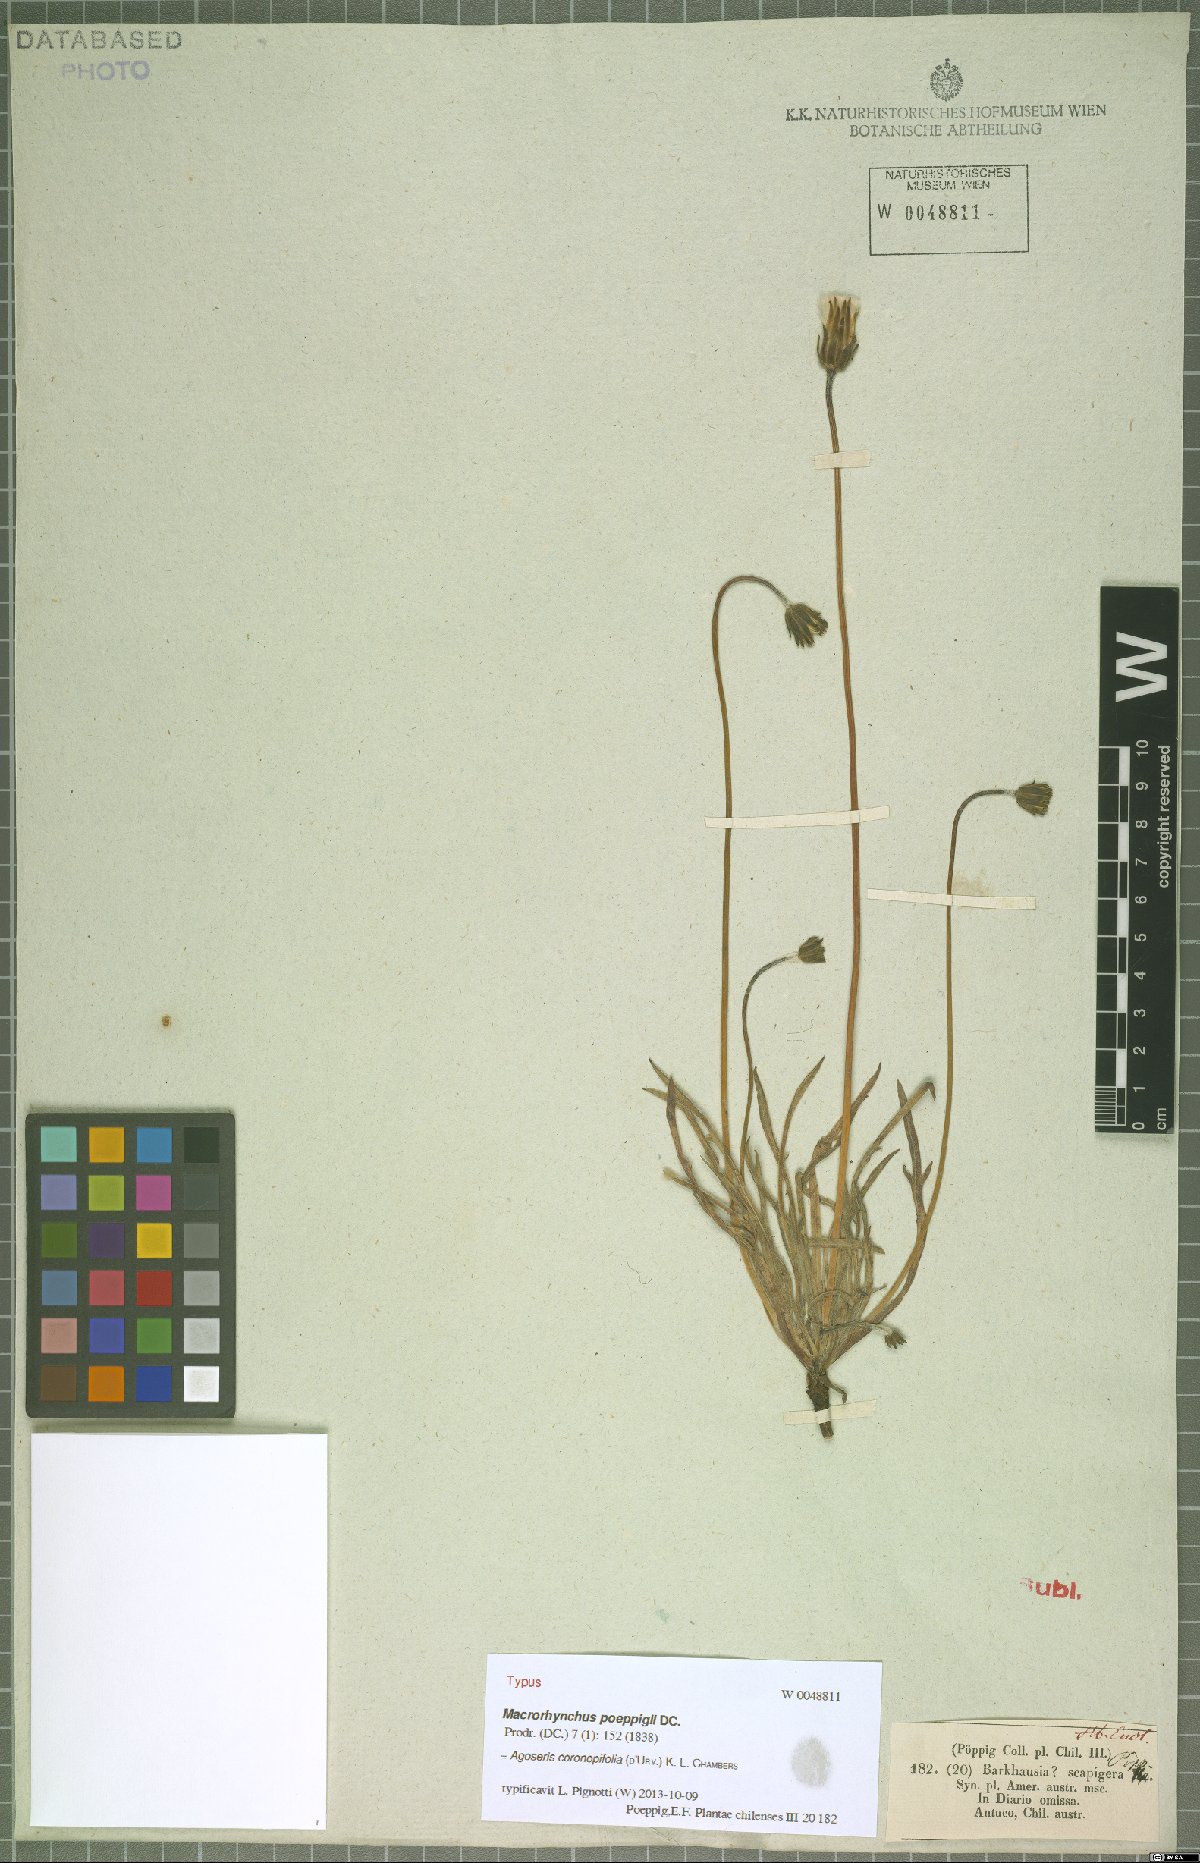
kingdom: Plantae
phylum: Tracheophyta
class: Magnoliopsida
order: Asterales
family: Asteraceae
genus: Agoseris
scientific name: Agoseris coronopifolia
